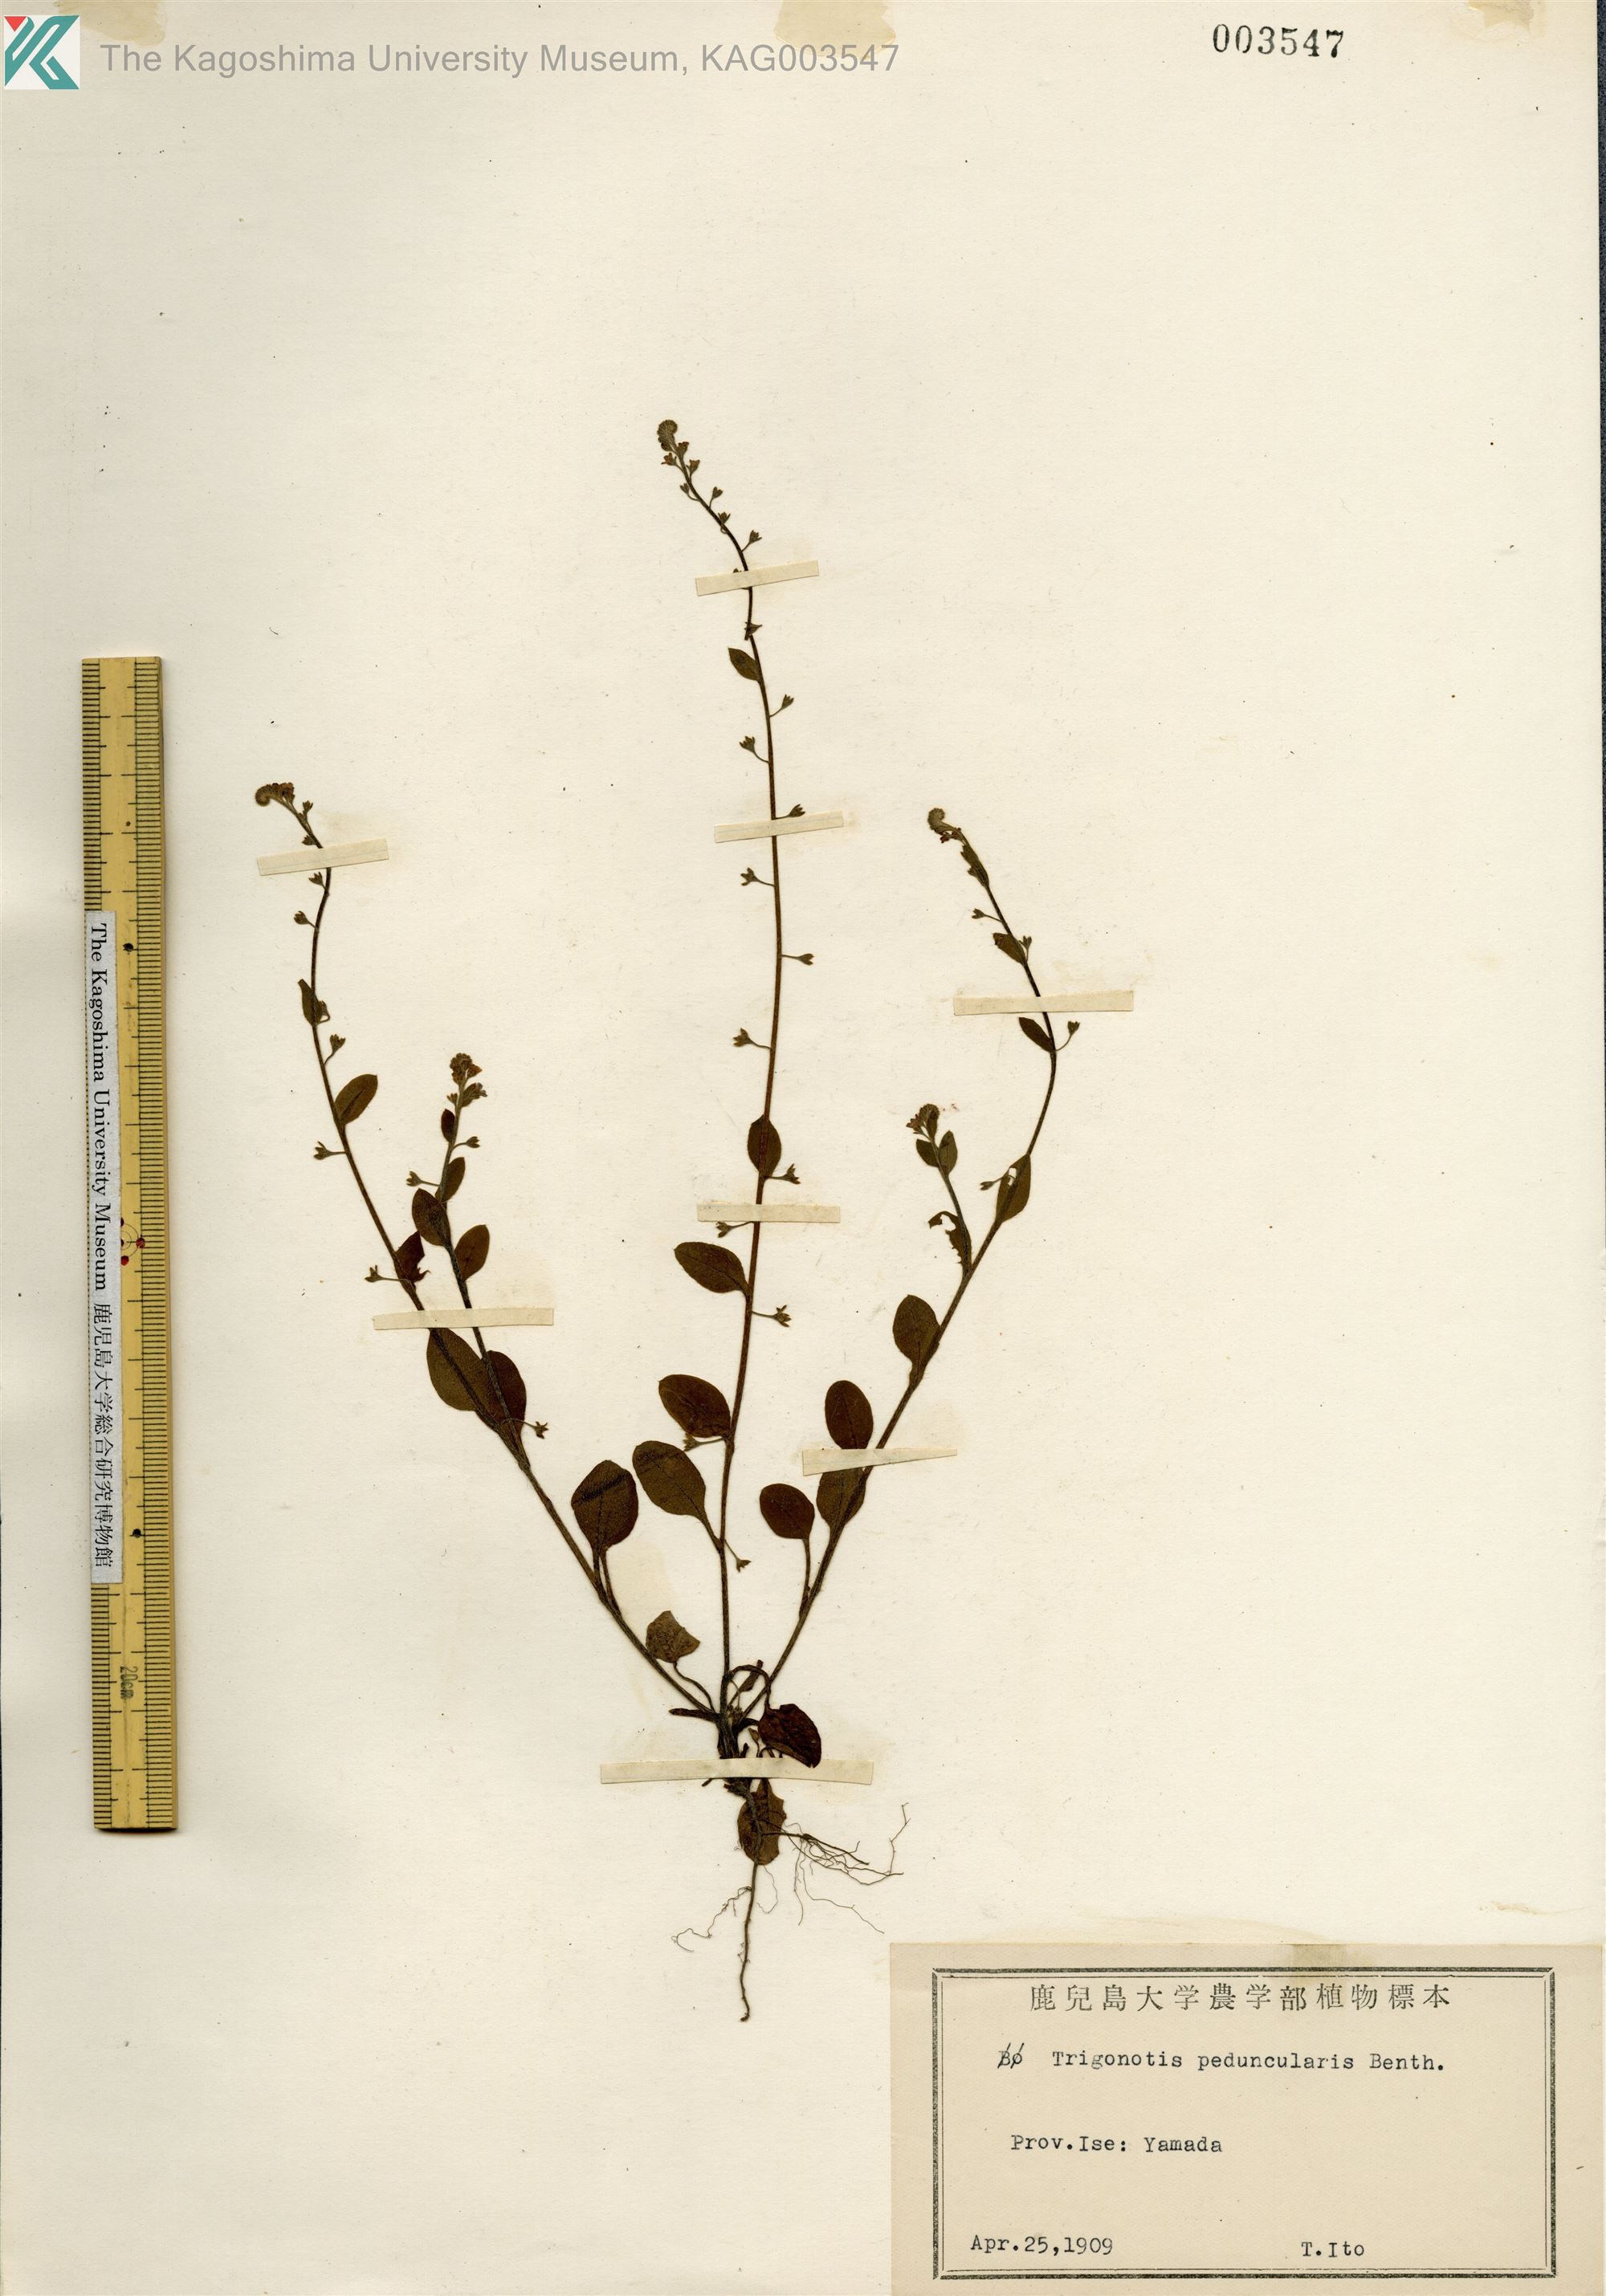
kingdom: Plantae
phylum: Tracheophyta
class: Magnoliopsida
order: Boraginales
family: Boraginaceae
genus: Trigonotis
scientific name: Trigonotis peduncularis
